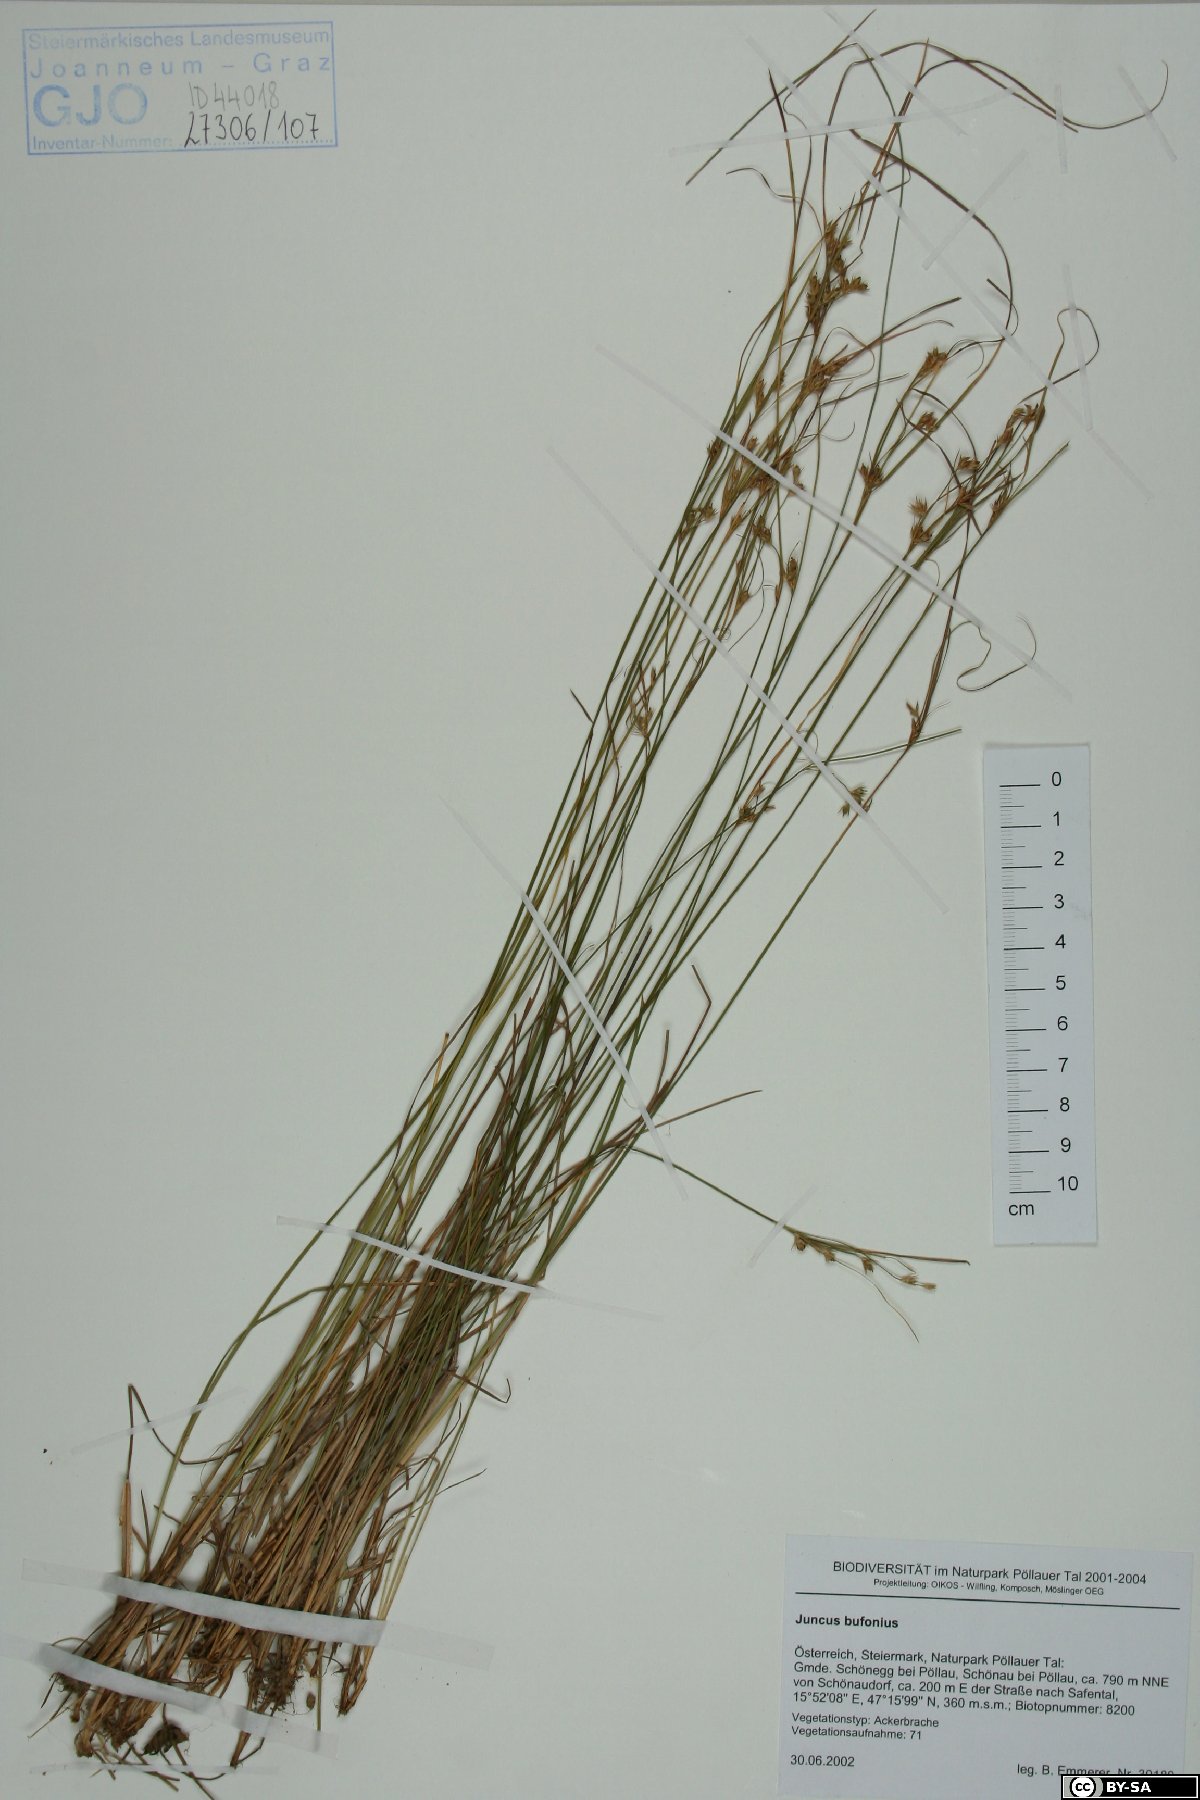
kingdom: Plantae
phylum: Tracheophyta
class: Liliopsida
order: Poales
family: Juncaceae
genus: Juncus
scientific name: Juncus bufonius
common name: Toad rush
